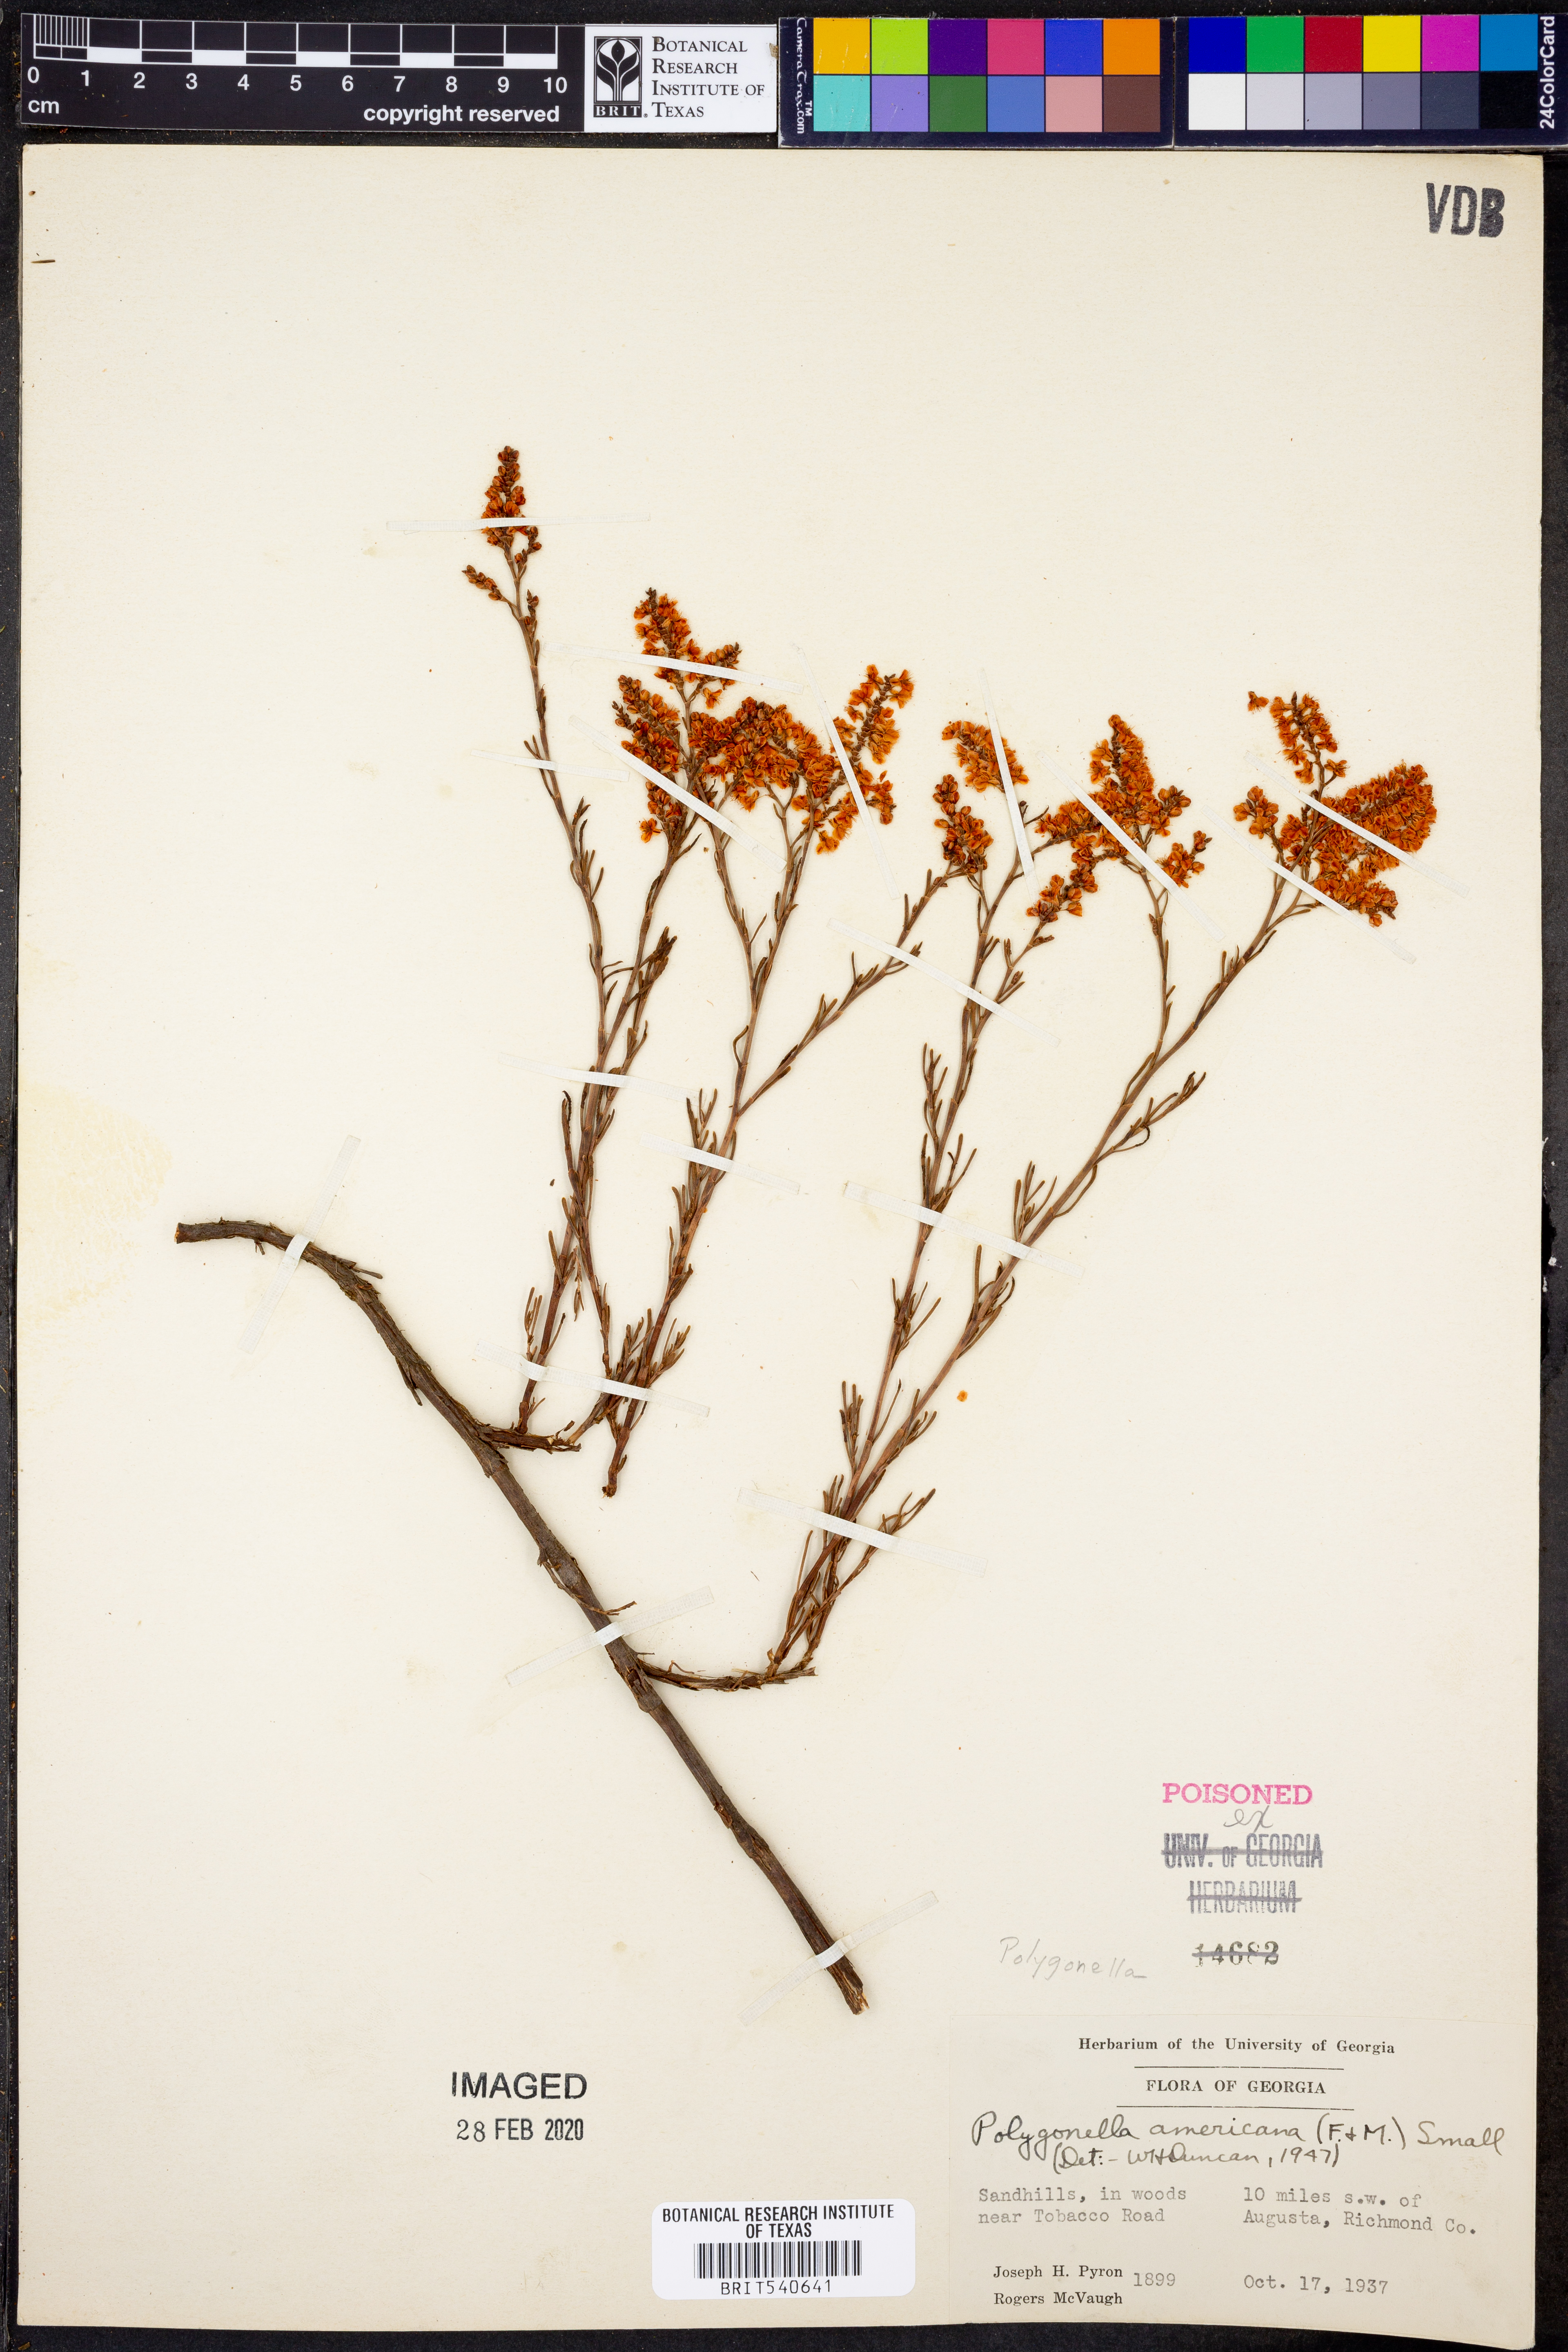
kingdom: Plantae
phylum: Tracheophyta
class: Magnoliopsida
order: Caryophyllales
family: Polygonaceae
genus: Polygonella
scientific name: Polygonella americana
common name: Southern jointweed
